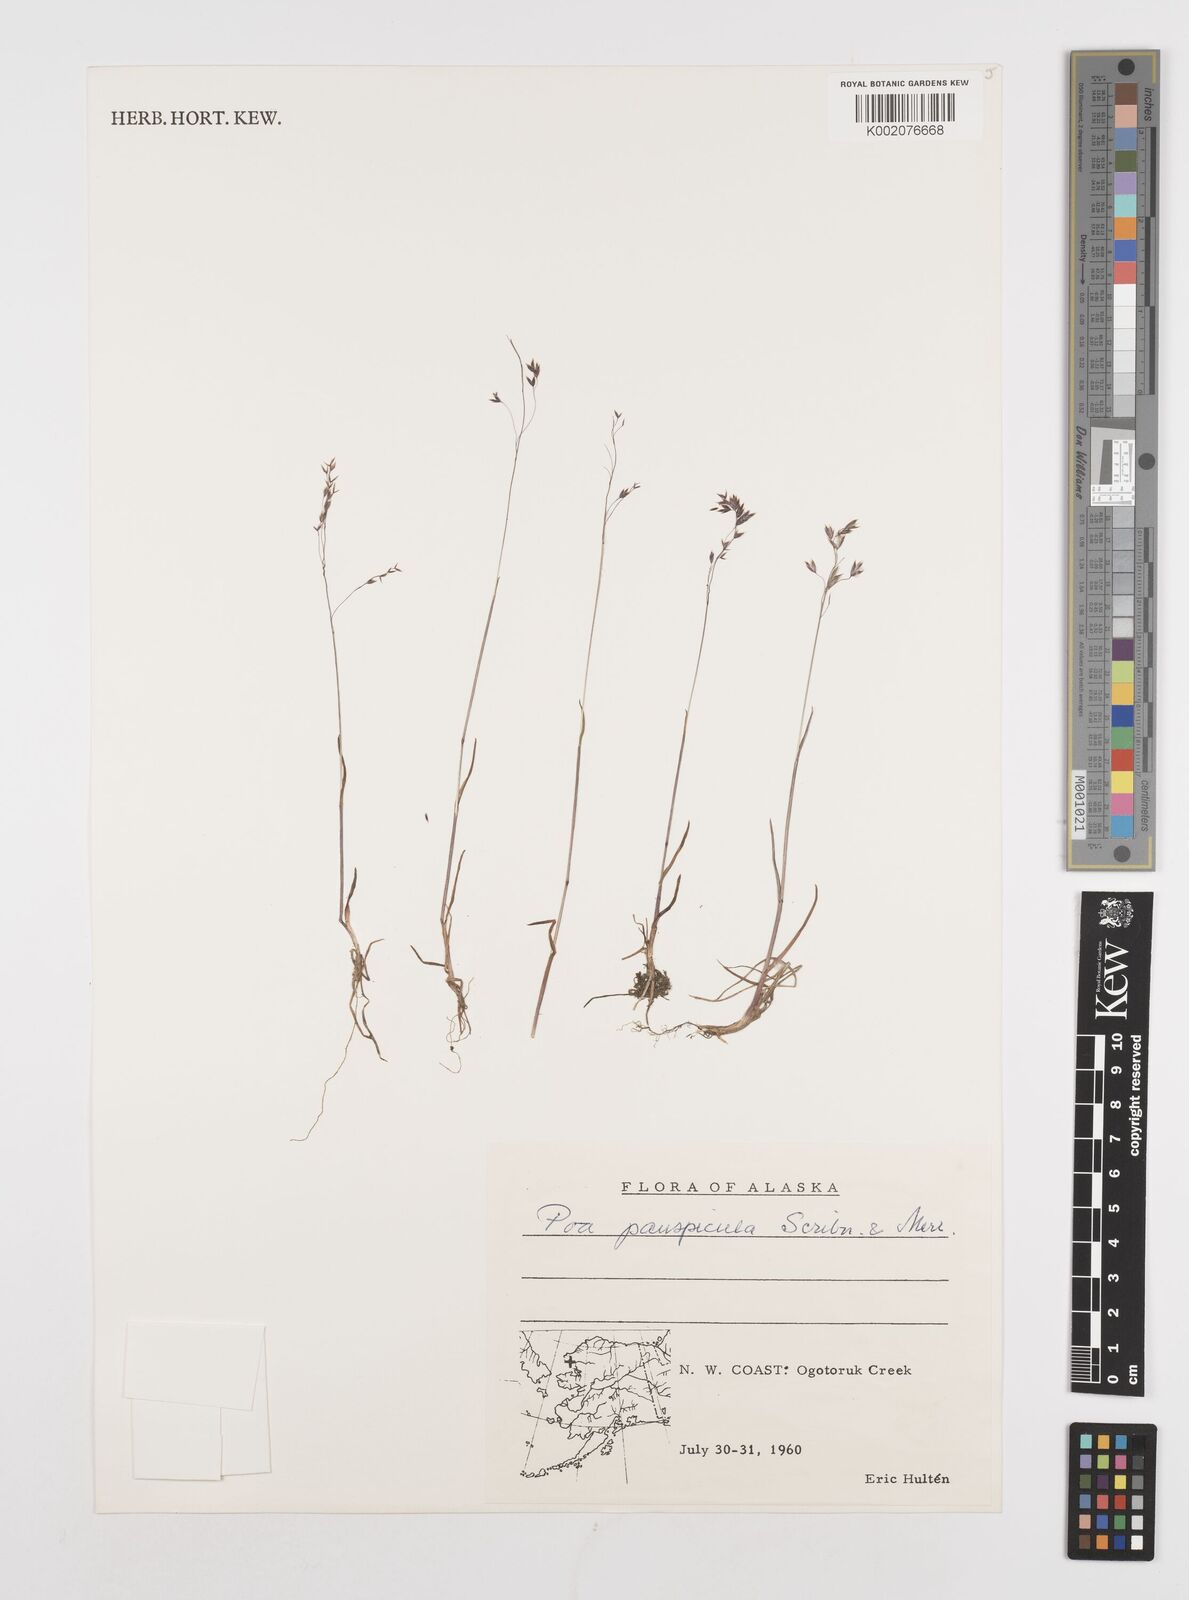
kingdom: Plantae
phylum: Tracheophyta
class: Liliopsida
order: Poales
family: Poaceae
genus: Poa
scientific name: Poa paucispicula
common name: Alaska bluegrass
